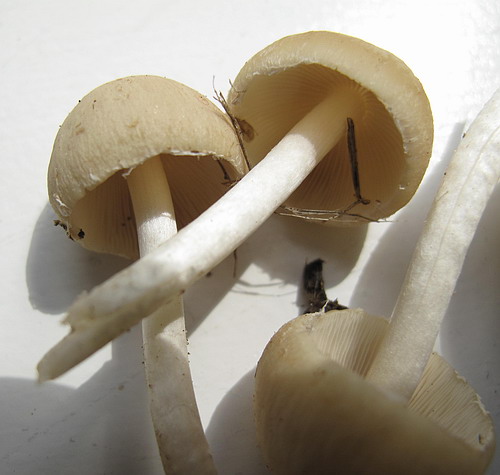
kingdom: Fungi
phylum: Basidiomycota
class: Agaricomycetes
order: Agaricales
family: Psathyrellaceae
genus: Candolleomyces
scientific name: Candolleomyces candolleanus
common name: Candolles mørkhat
